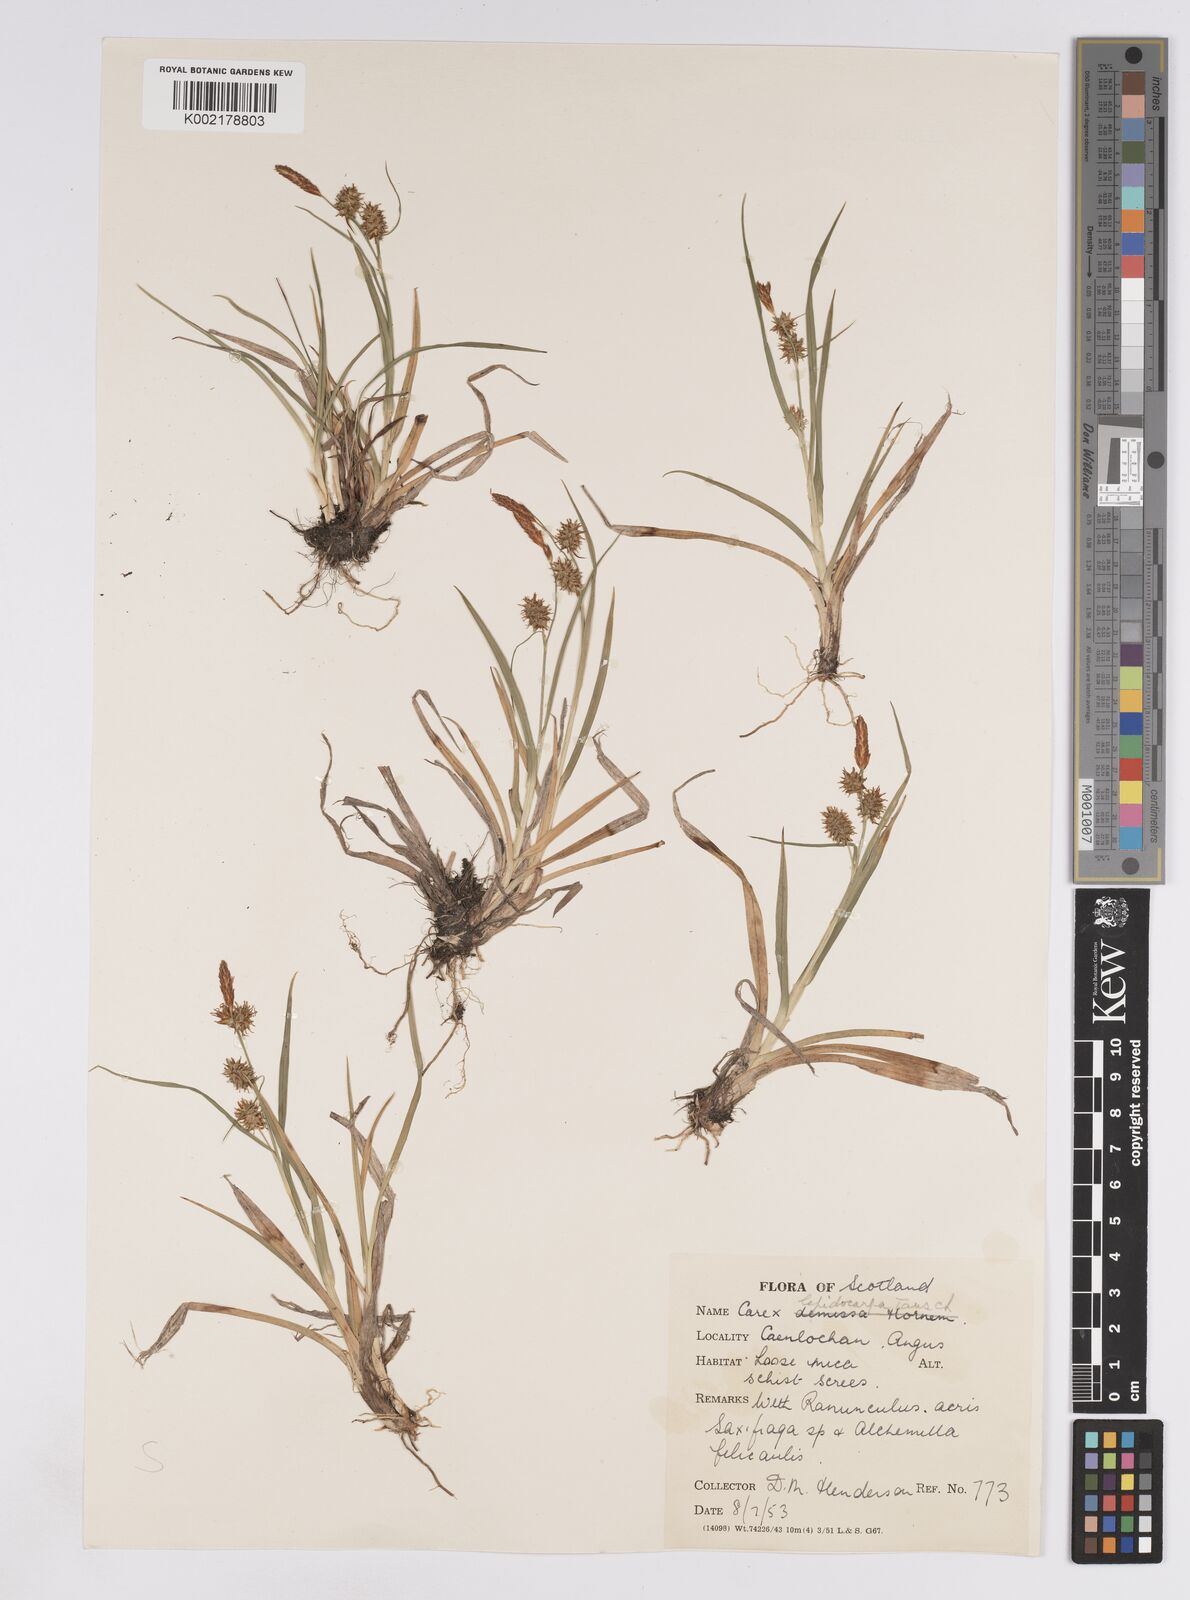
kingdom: Plantae
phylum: Tracheophyta
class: Liliopsida
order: Poales
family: Cyperaceae
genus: Carex
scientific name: Carex lepidocarpa
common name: Long-stalked yellow-sedge
